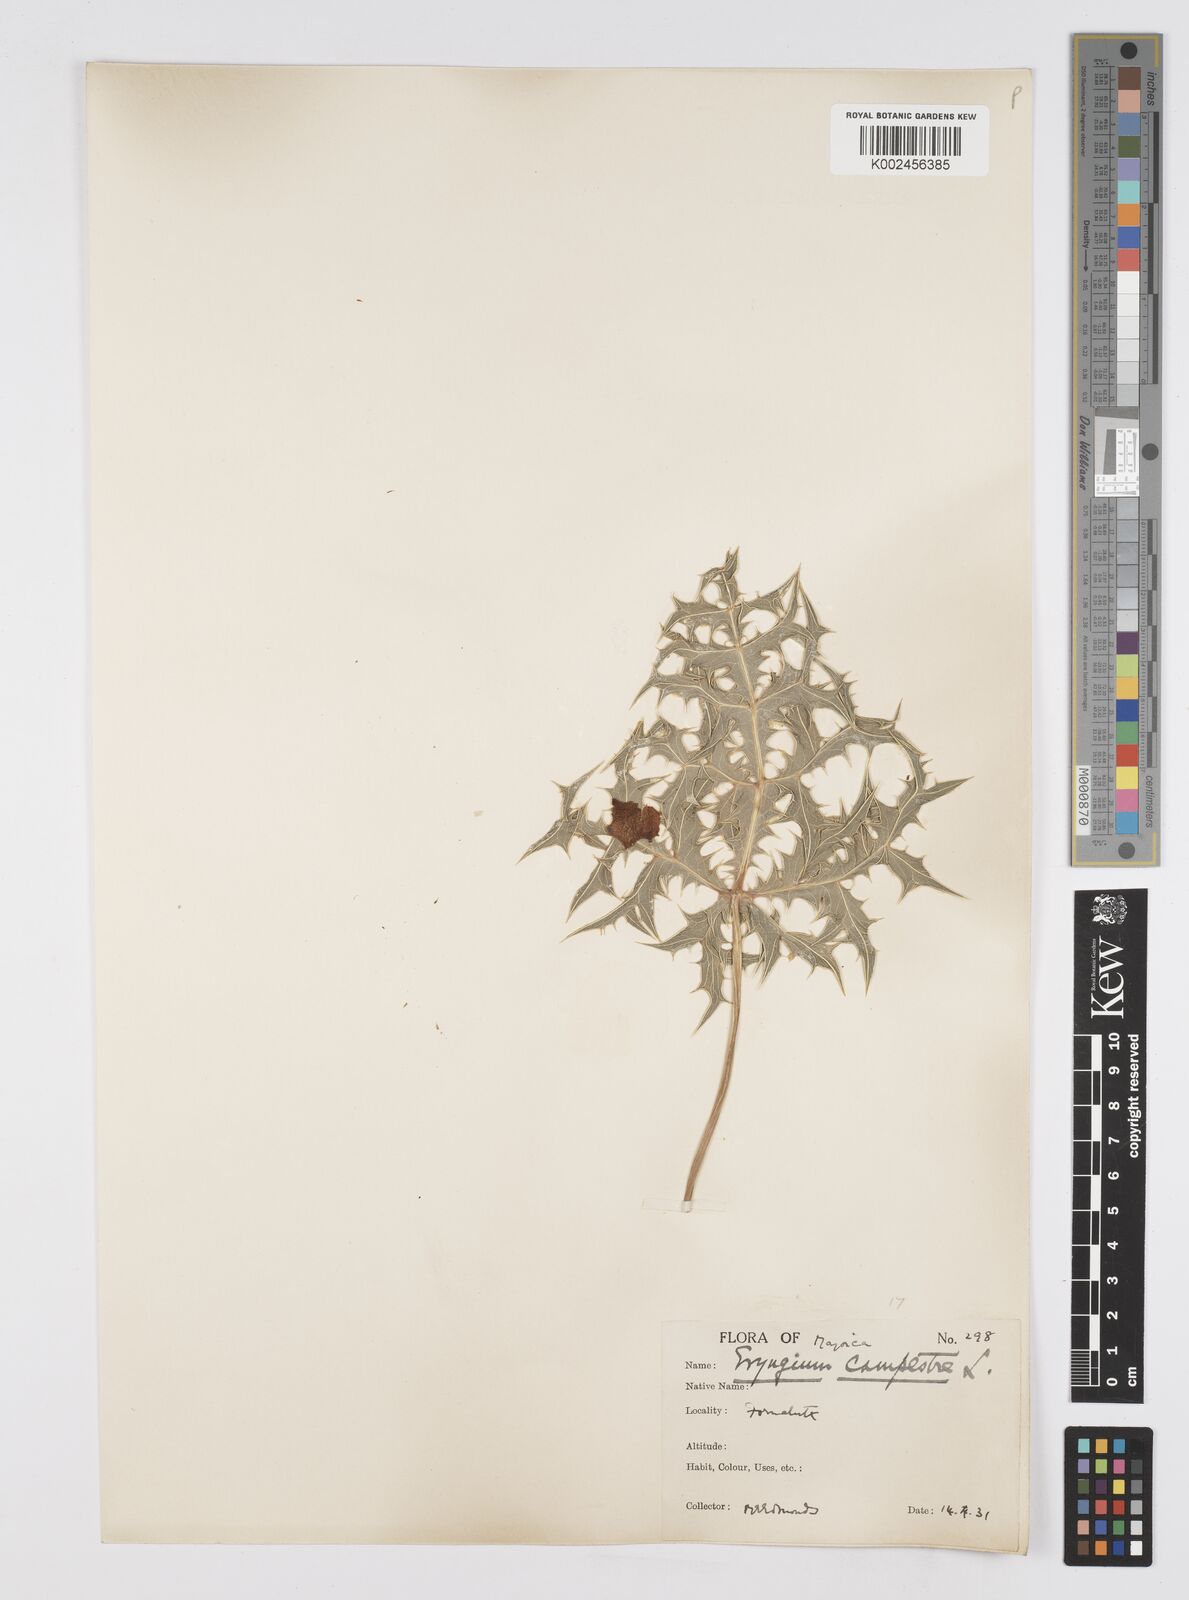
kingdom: Plantae
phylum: Tracheophyta
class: Magnoliopsida
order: Apiales
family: Apiaceae
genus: Eryngium
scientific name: Eryngium campestre
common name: Field eryngo
